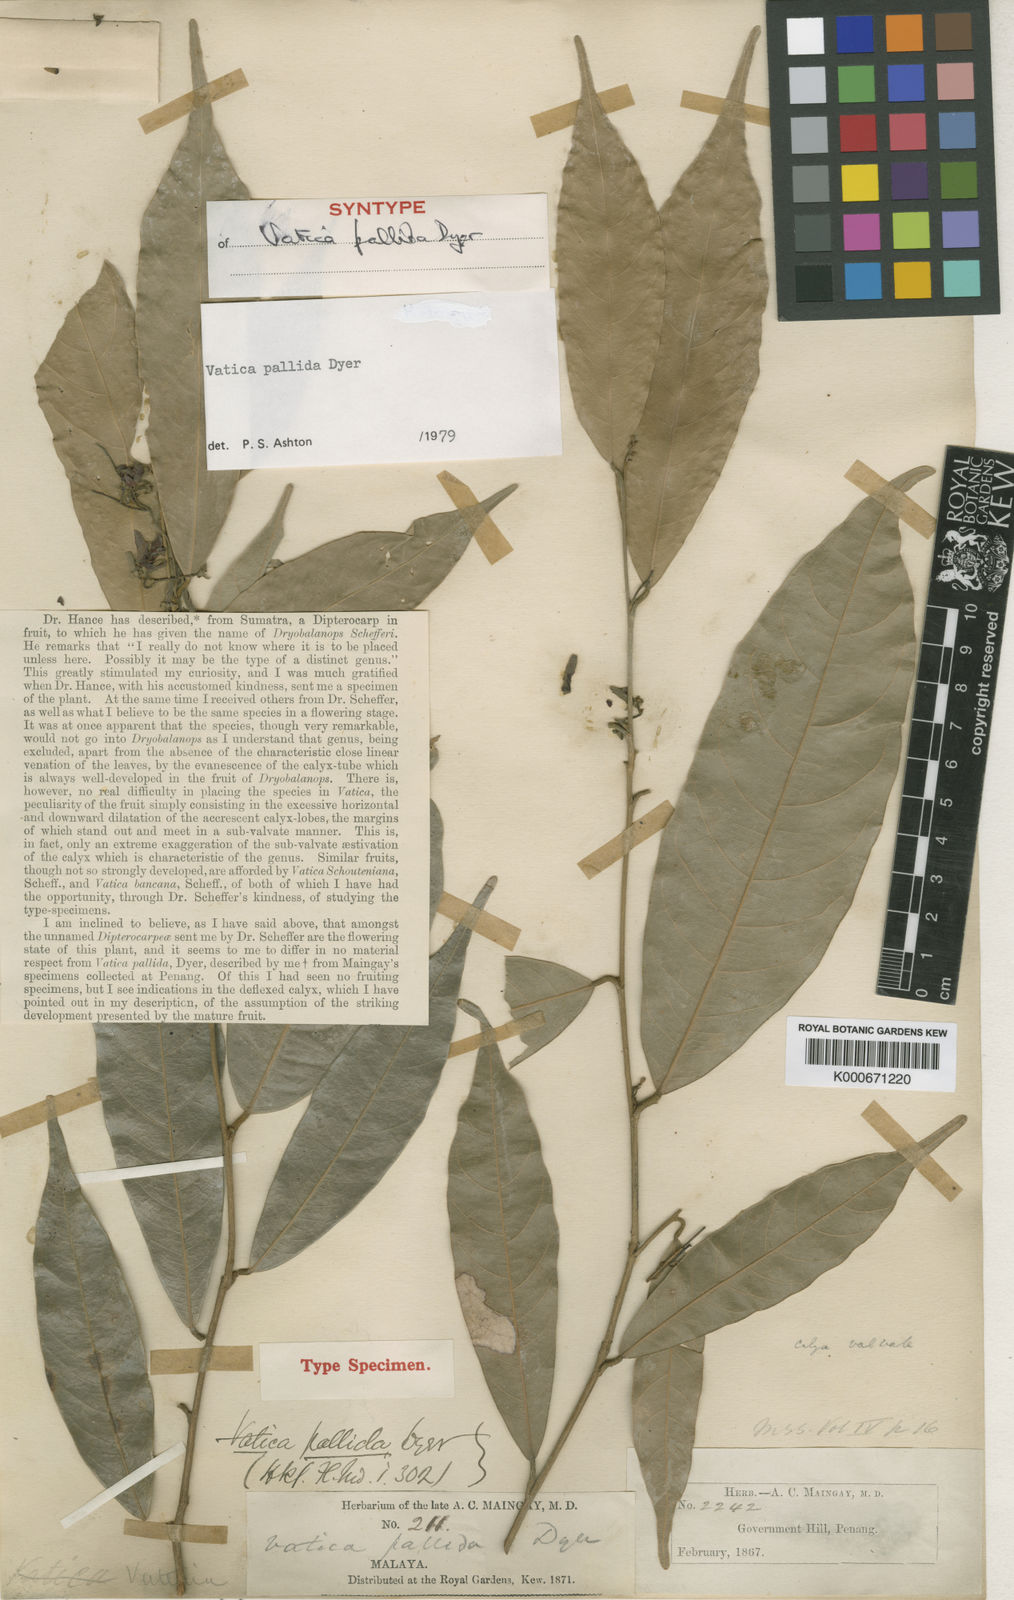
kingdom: Plantae
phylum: Tracheophyta
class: Magnoliopsida
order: Malvales
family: Dipterocarpaceae
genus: Vatica
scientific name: Vatica pallida
